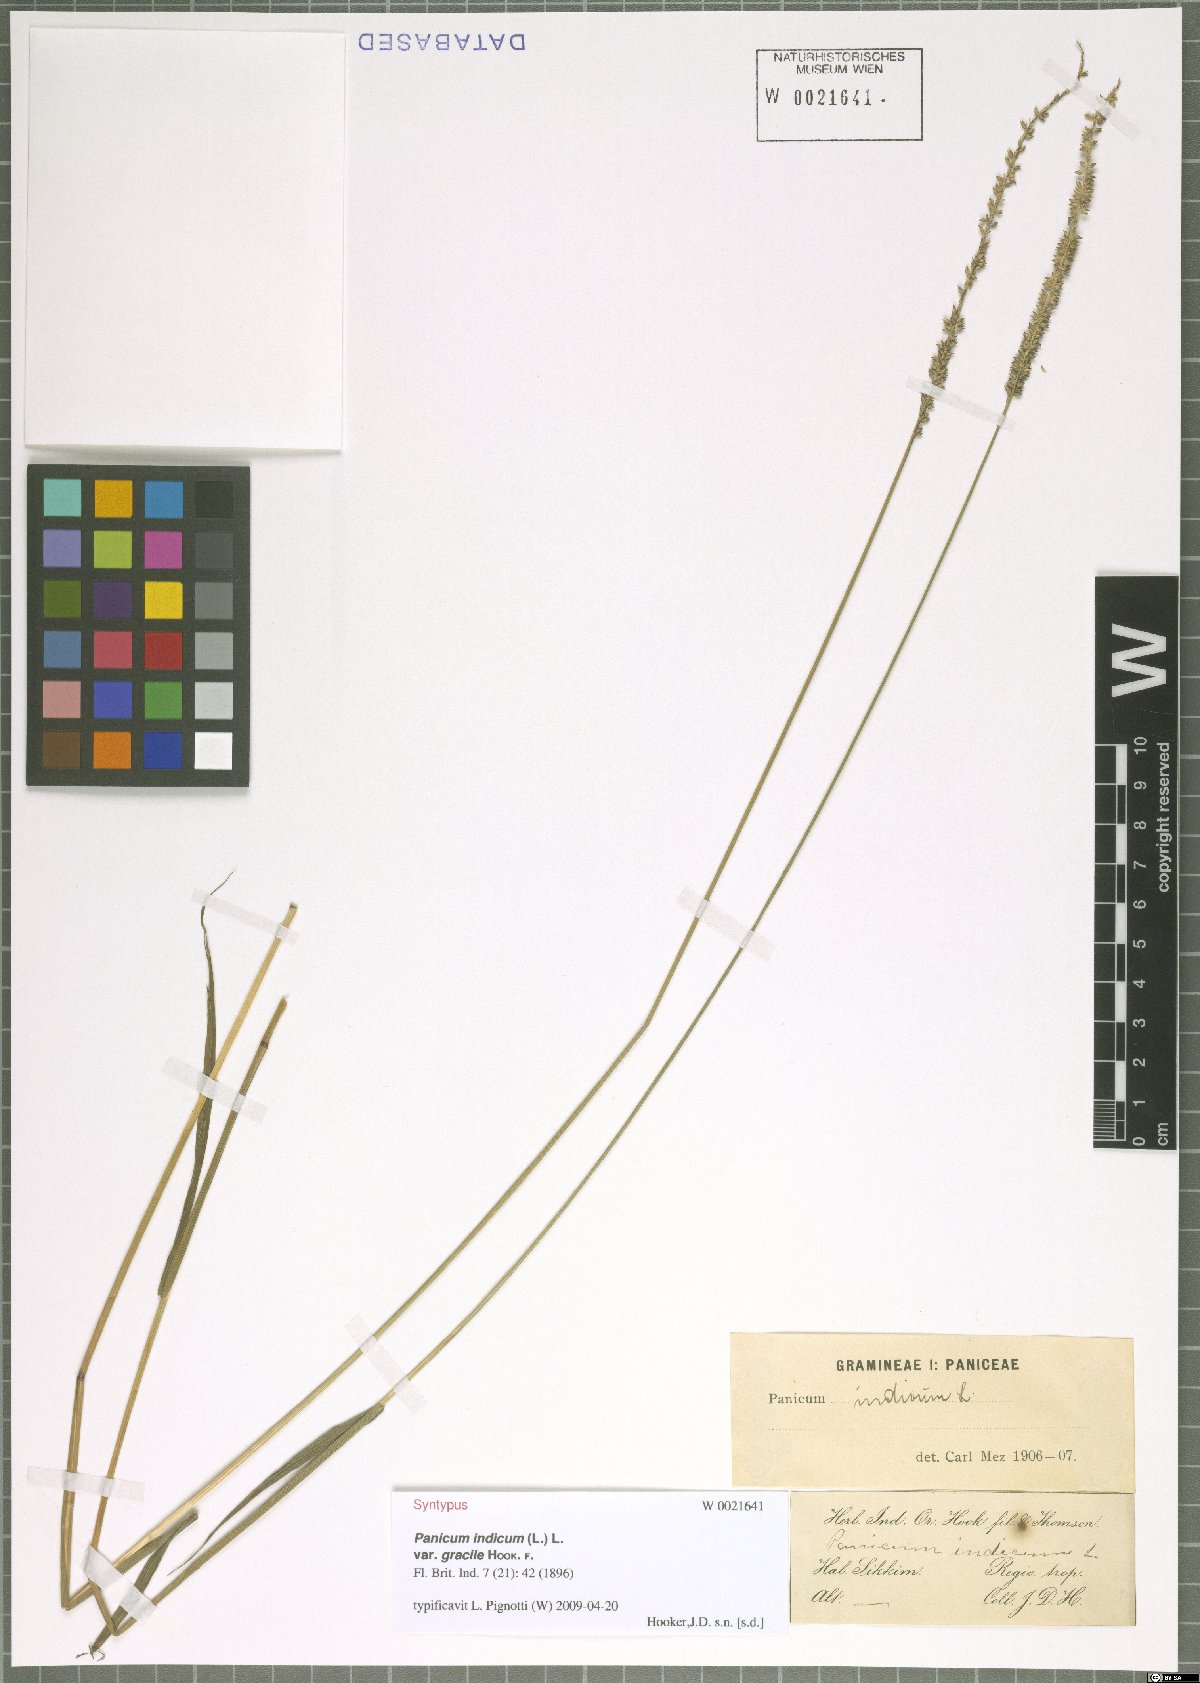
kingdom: Plantae
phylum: Tracheophyta
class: Liliopsida
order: Poales
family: Poaceae
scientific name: Poaceae
